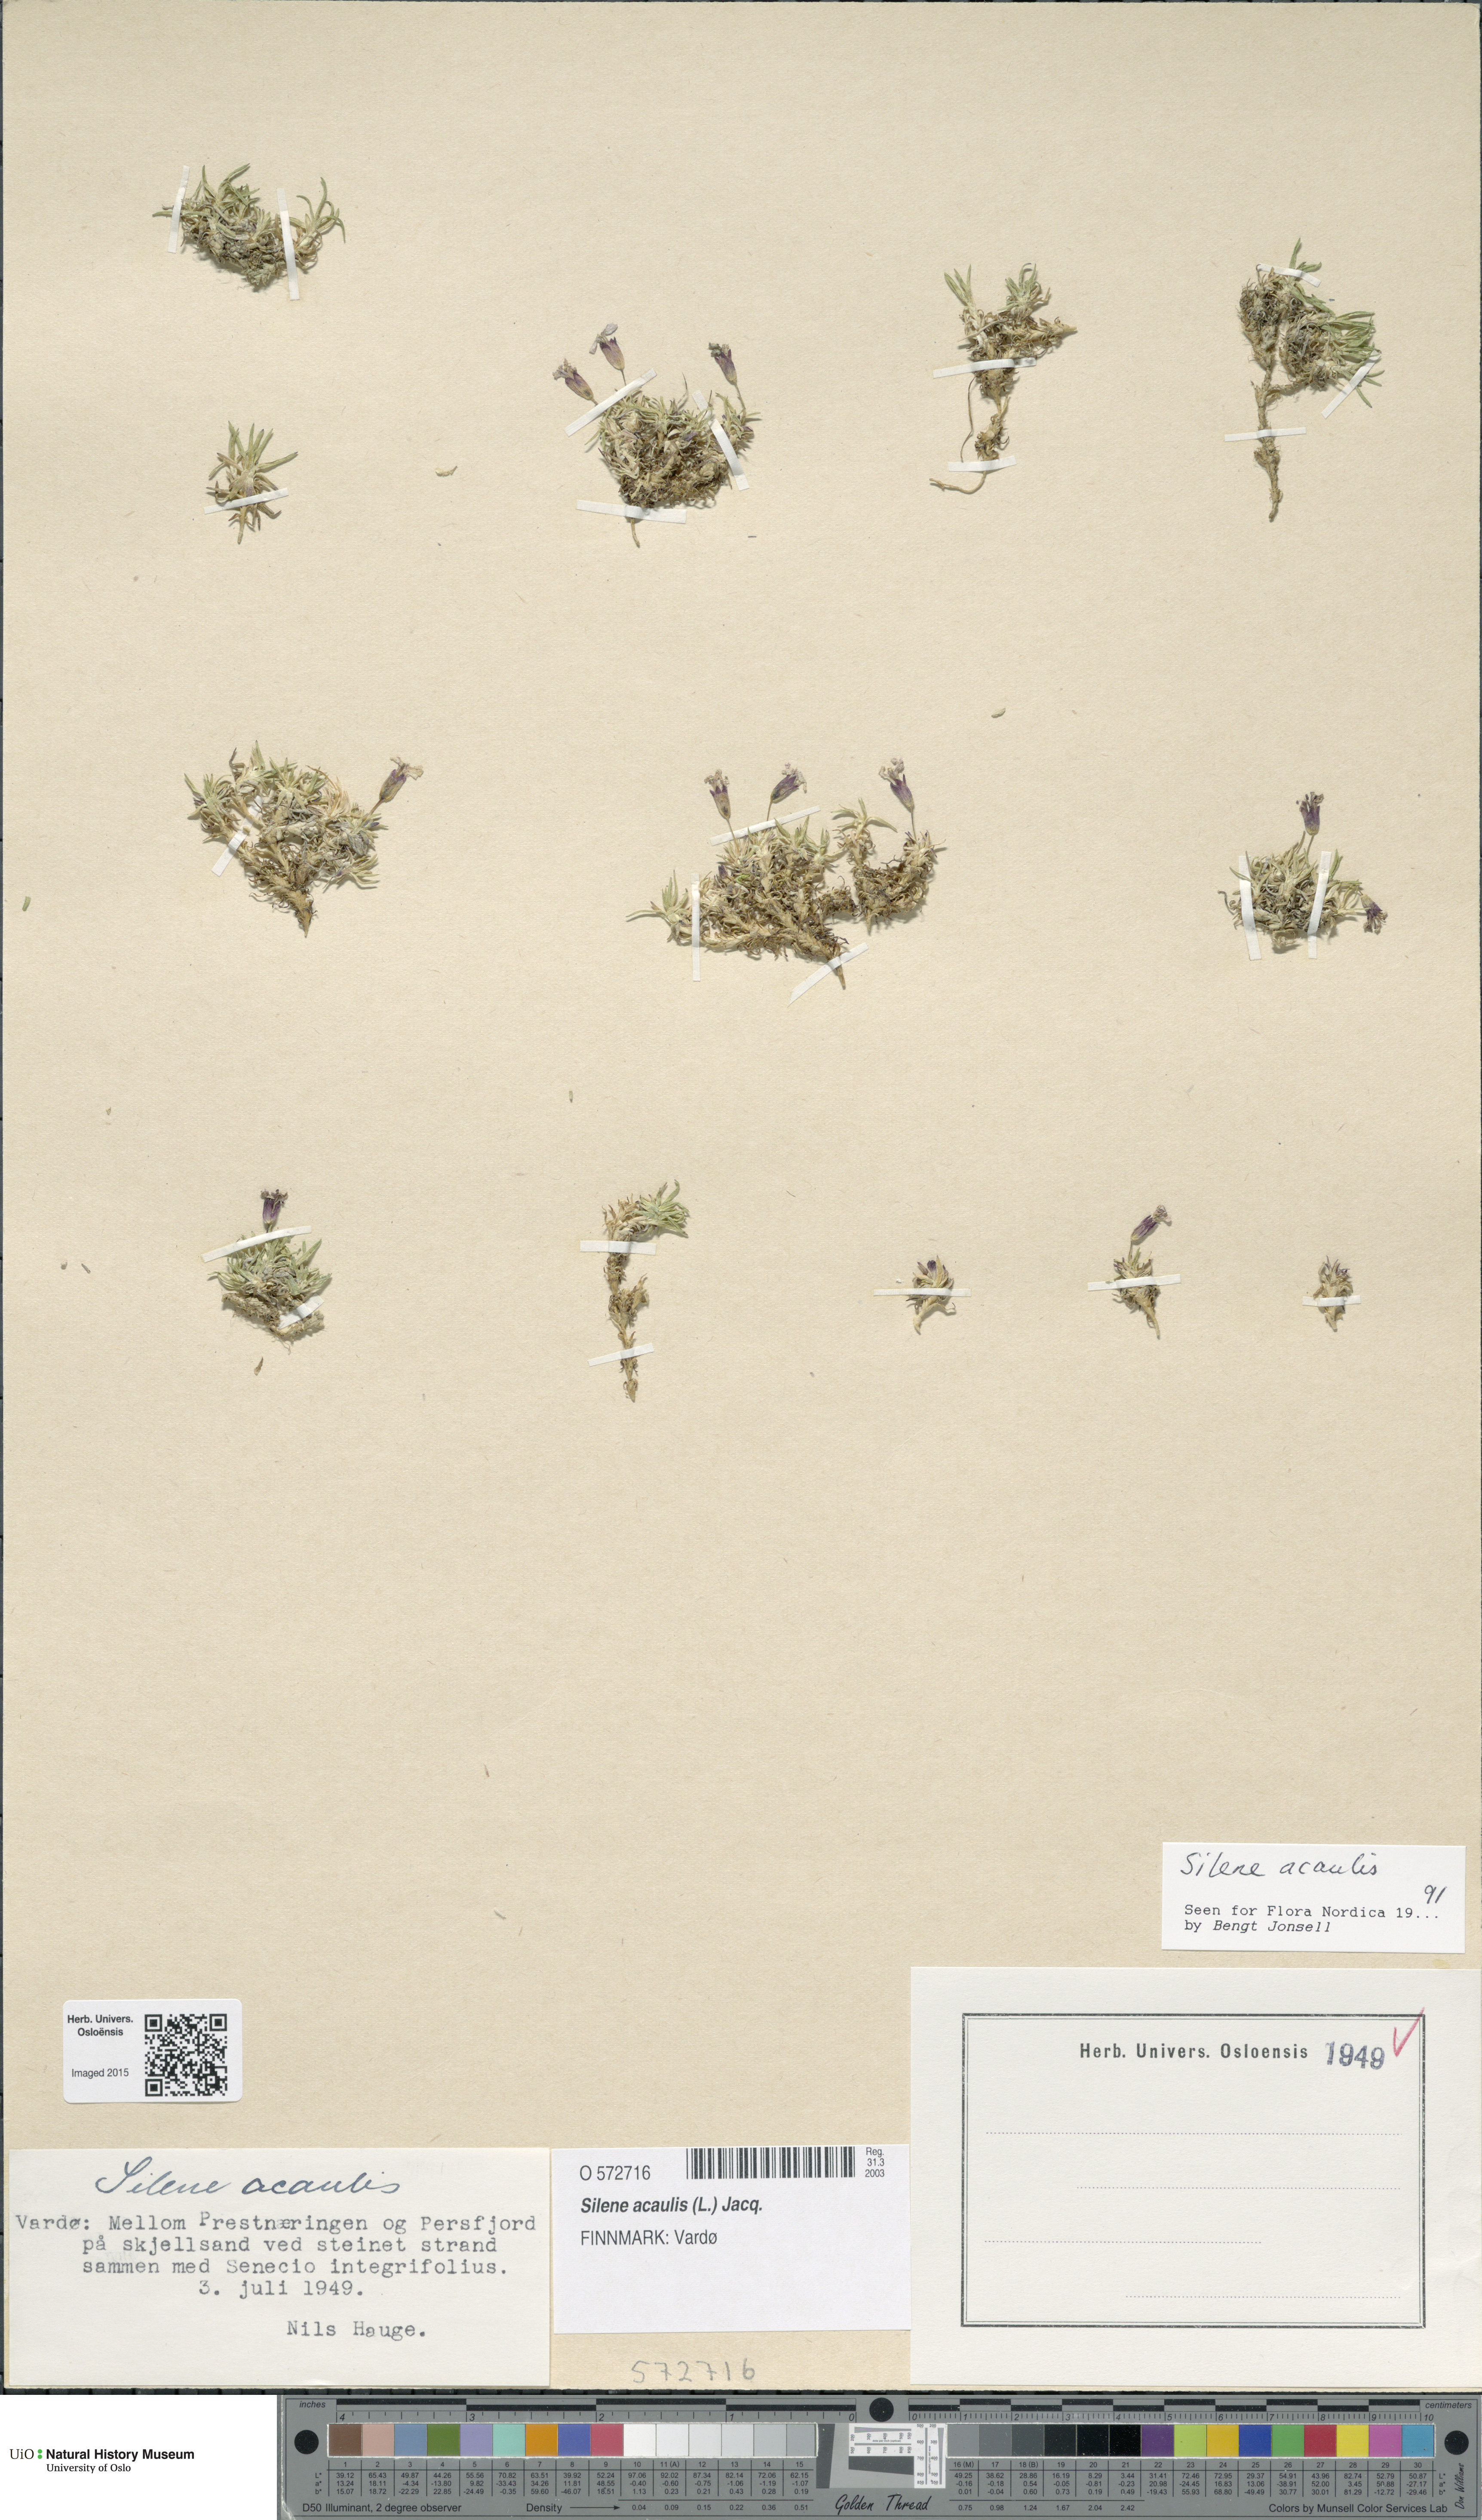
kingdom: Plantae
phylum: Tracheophyta
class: Magnoliopsida
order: Caryophyllales
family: Caryophyllaceae
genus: Silene
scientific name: Silene acaulis
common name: Moss campion
